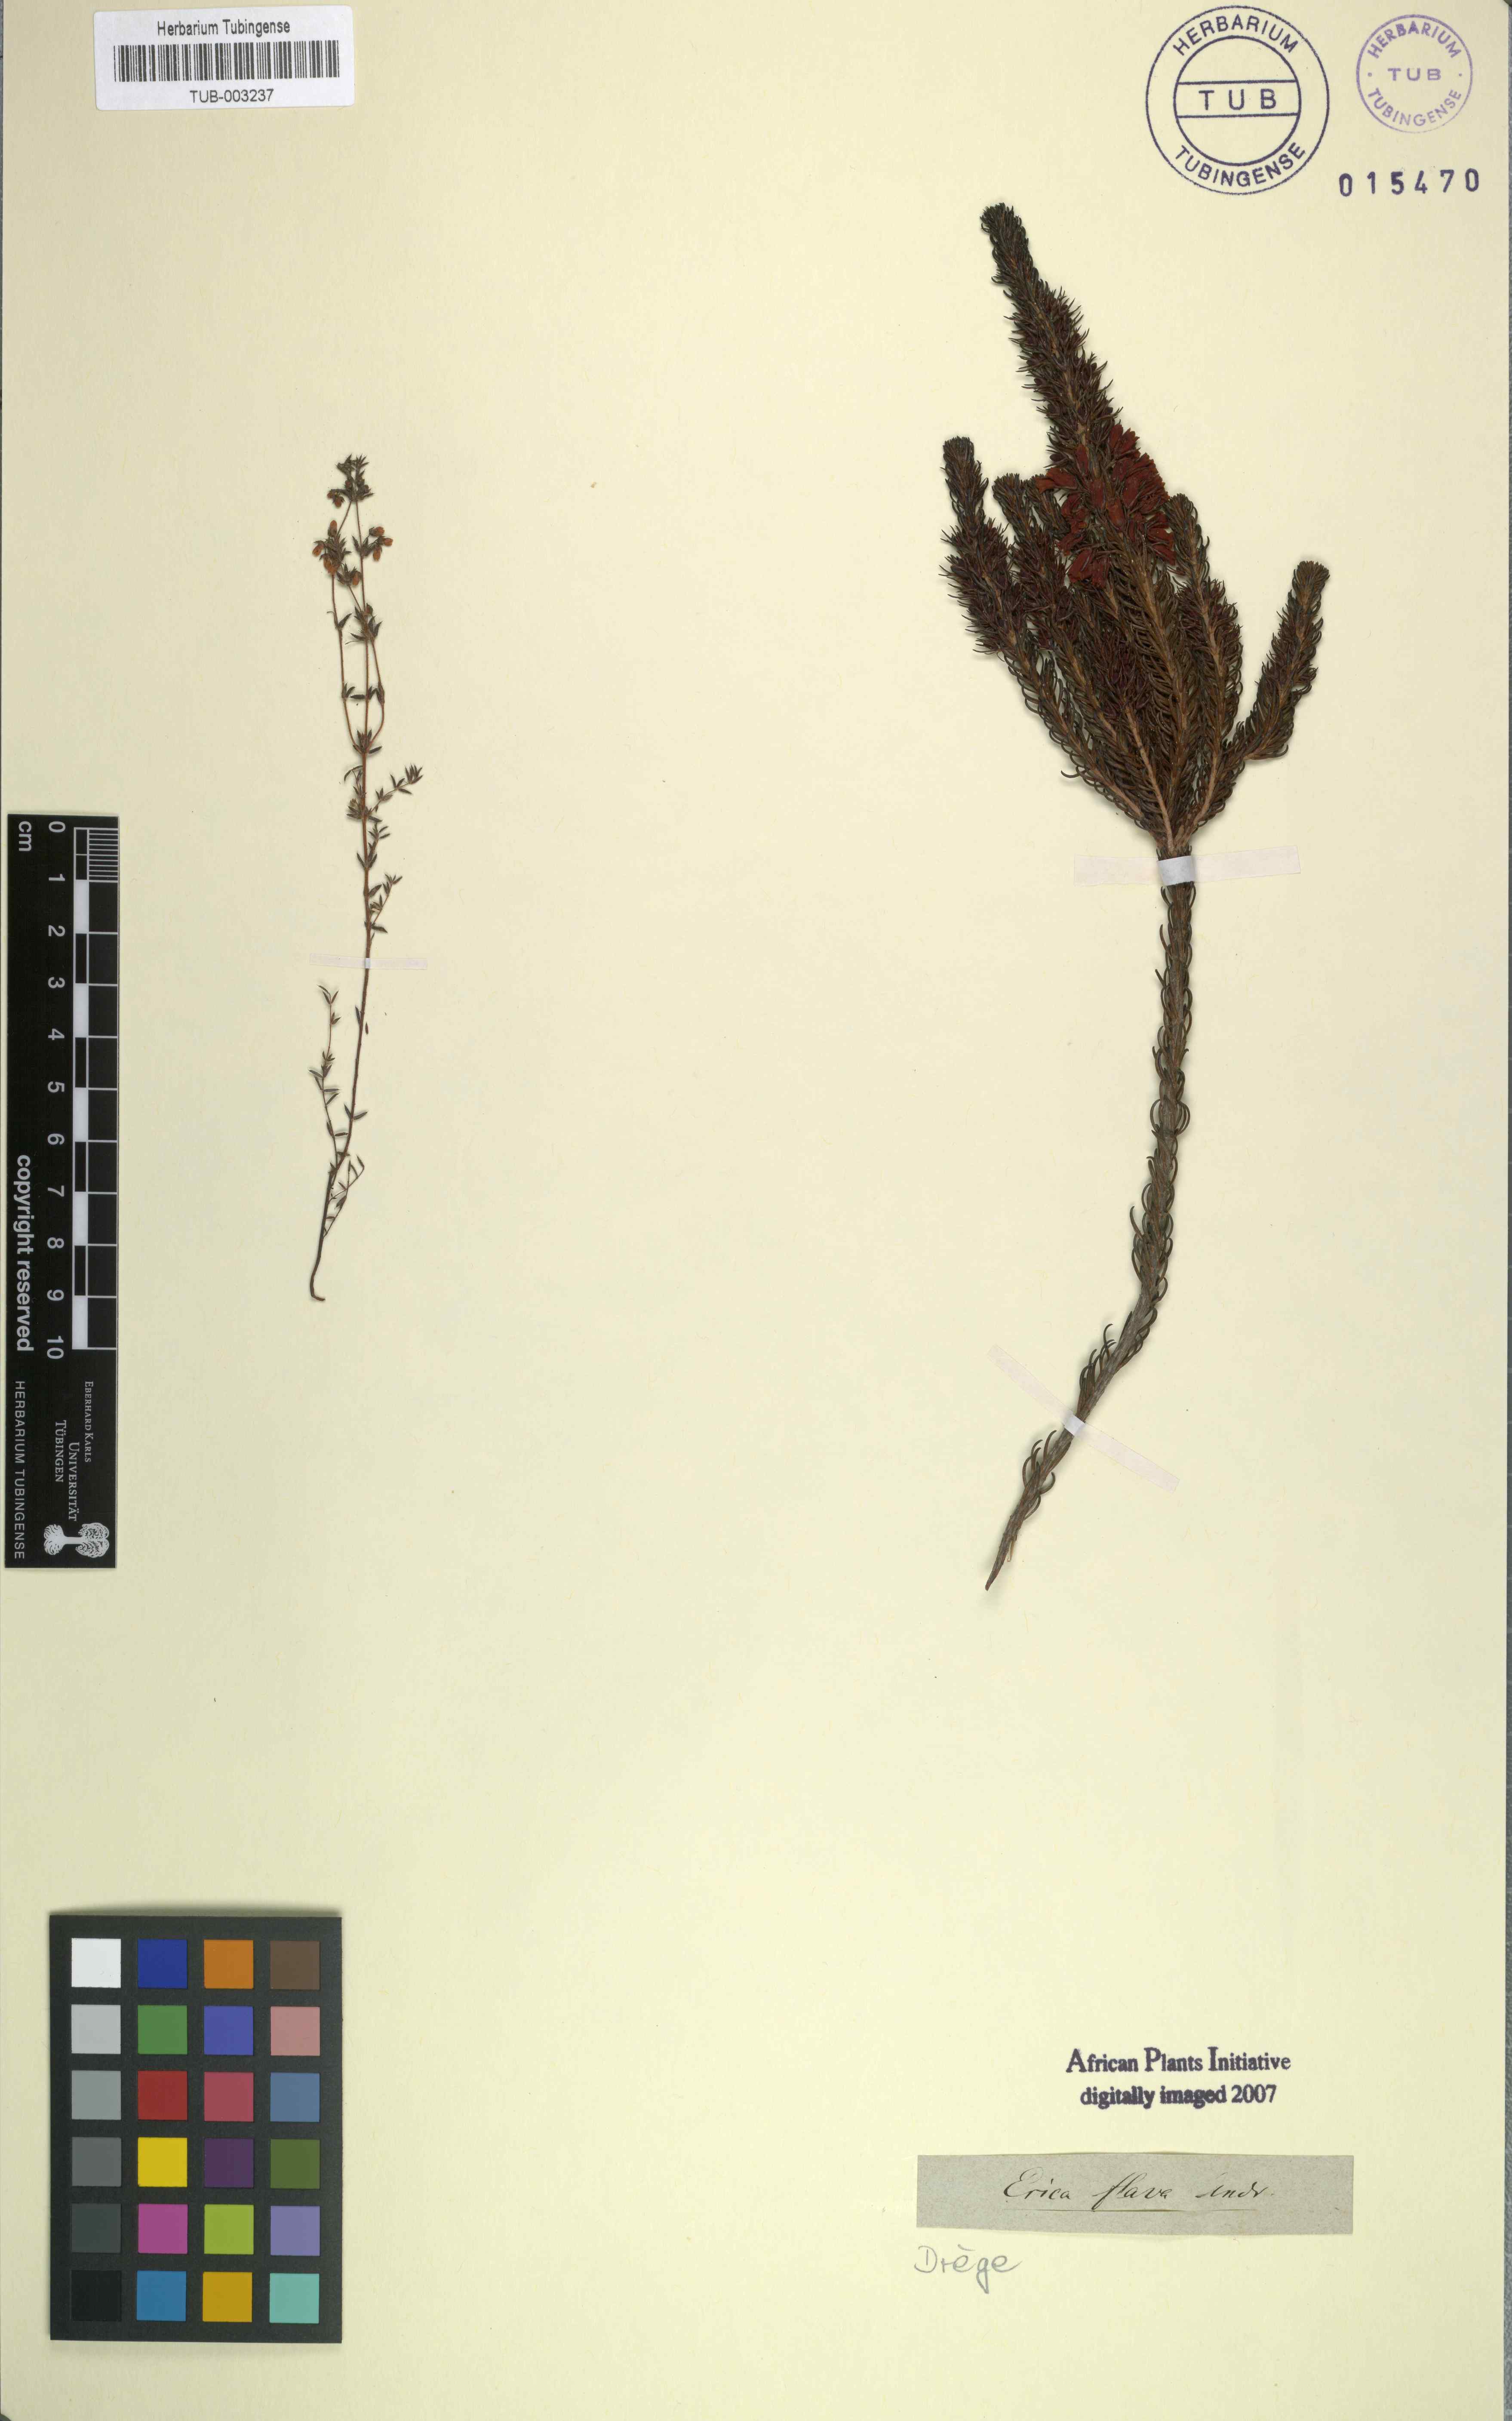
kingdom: Plantae
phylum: Tracheophyta
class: Magnoliopsida
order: Ericales
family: Ericaceae
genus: Erica
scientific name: Erica parilis
